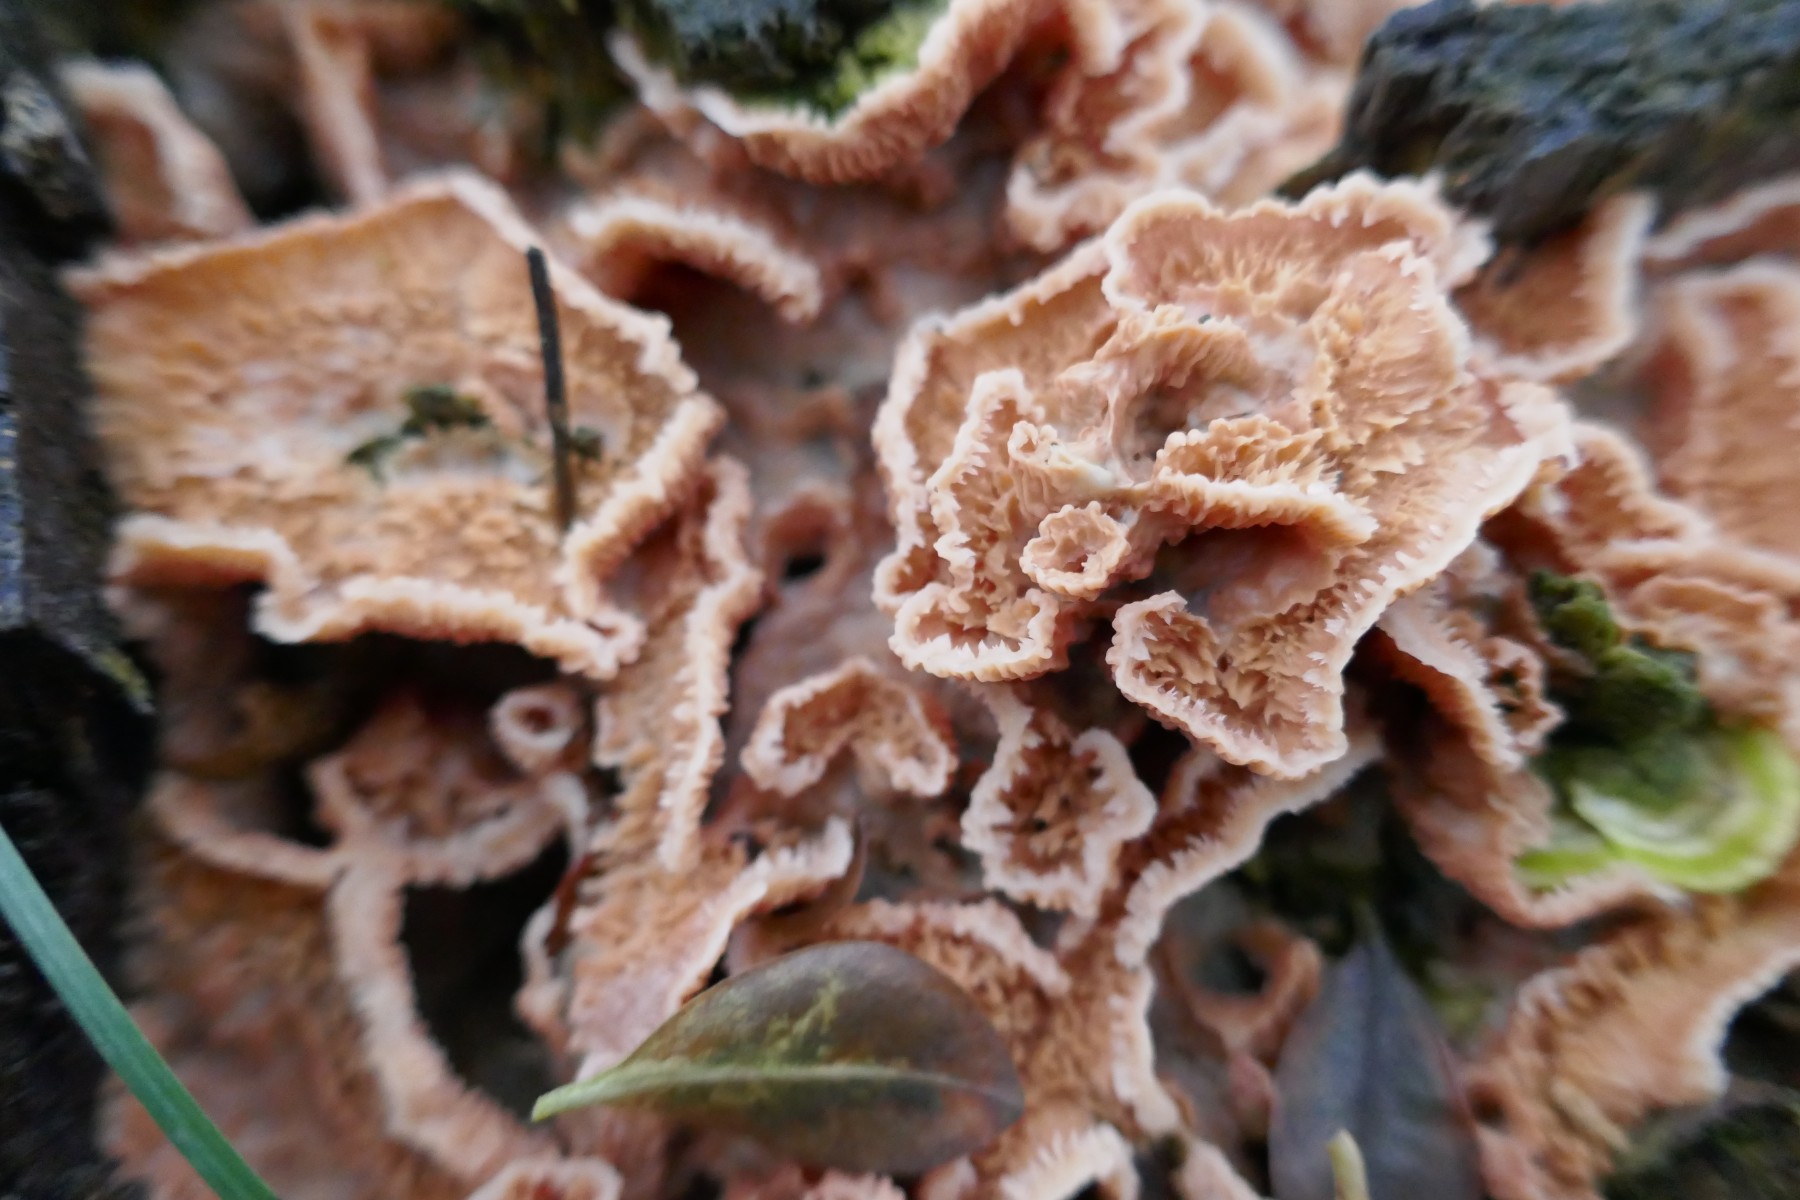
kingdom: Fungi
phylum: Basidiomycota
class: Agaricomycetes
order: Polyporales
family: Meruliaceae
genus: Phlebia
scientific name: Phlebia tremellosa
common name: bævrende åresvamp
